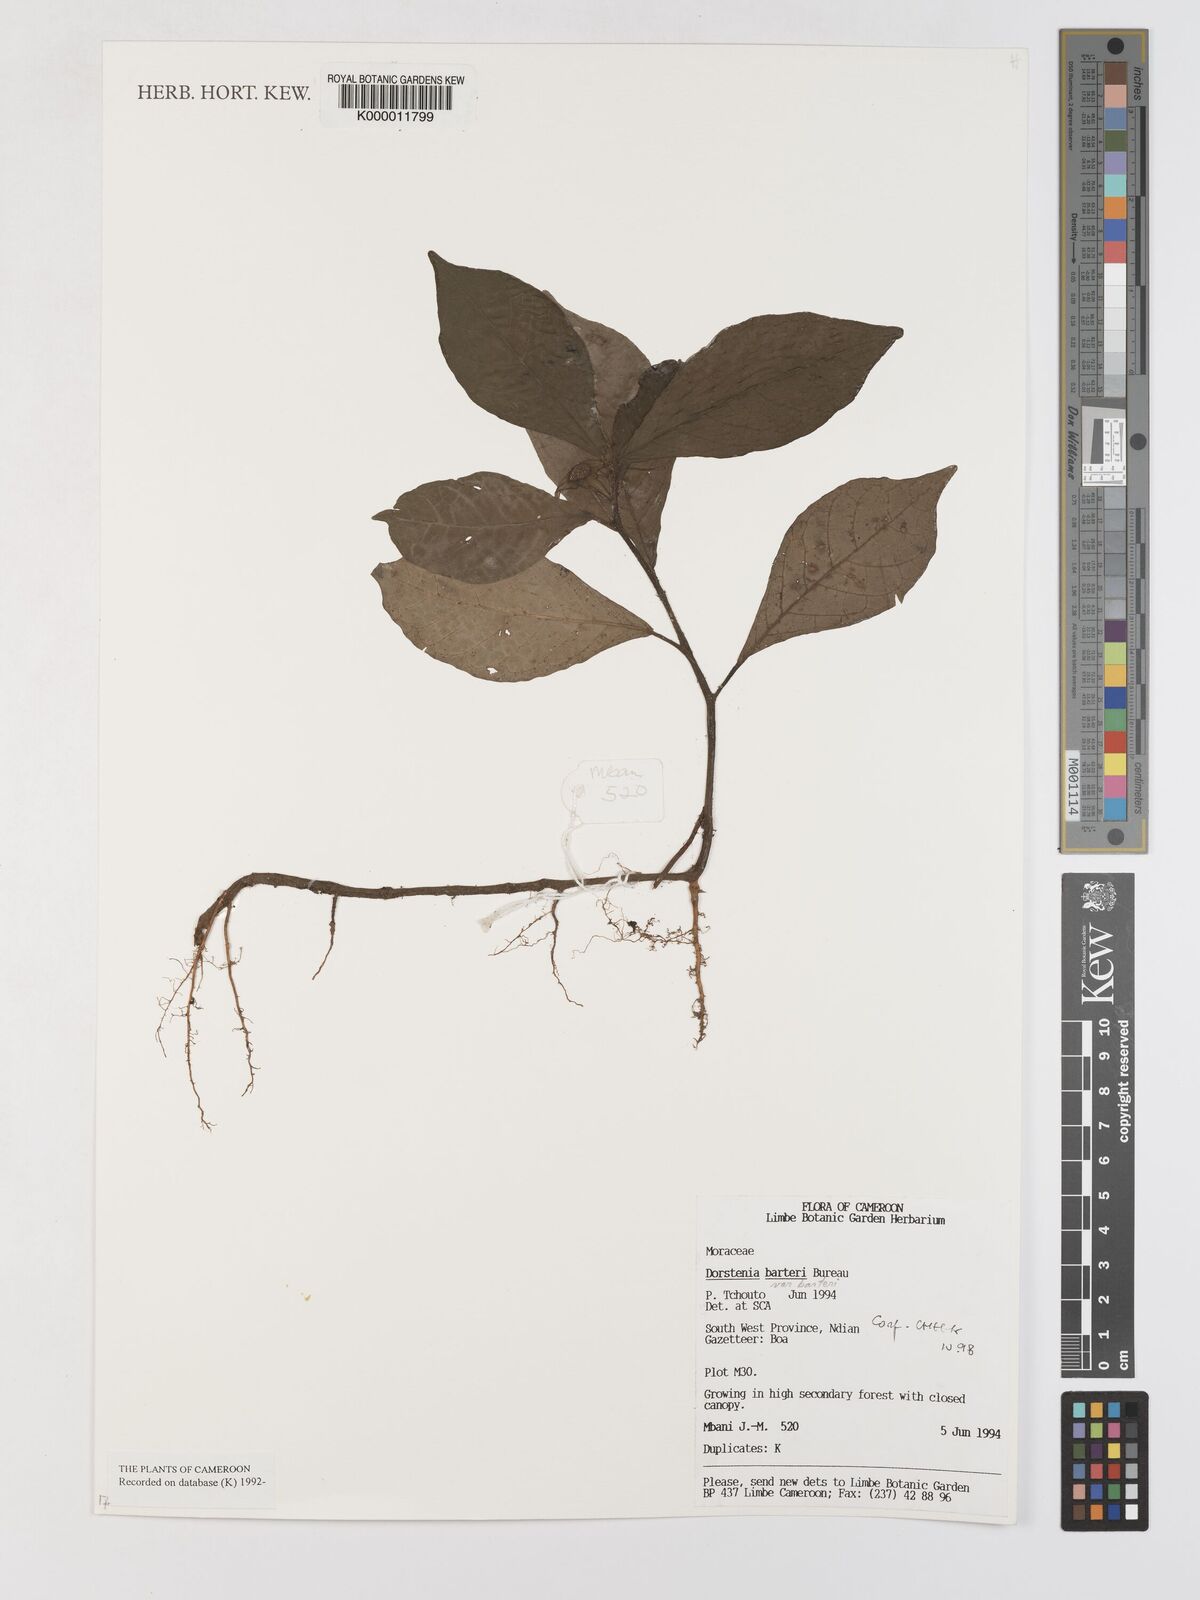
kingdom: Plantae
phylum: Tracheophyta
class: Magnoliopsida
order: Rosales
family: Moraceae
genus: Dorstenia
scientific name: Dorstenia barteri
